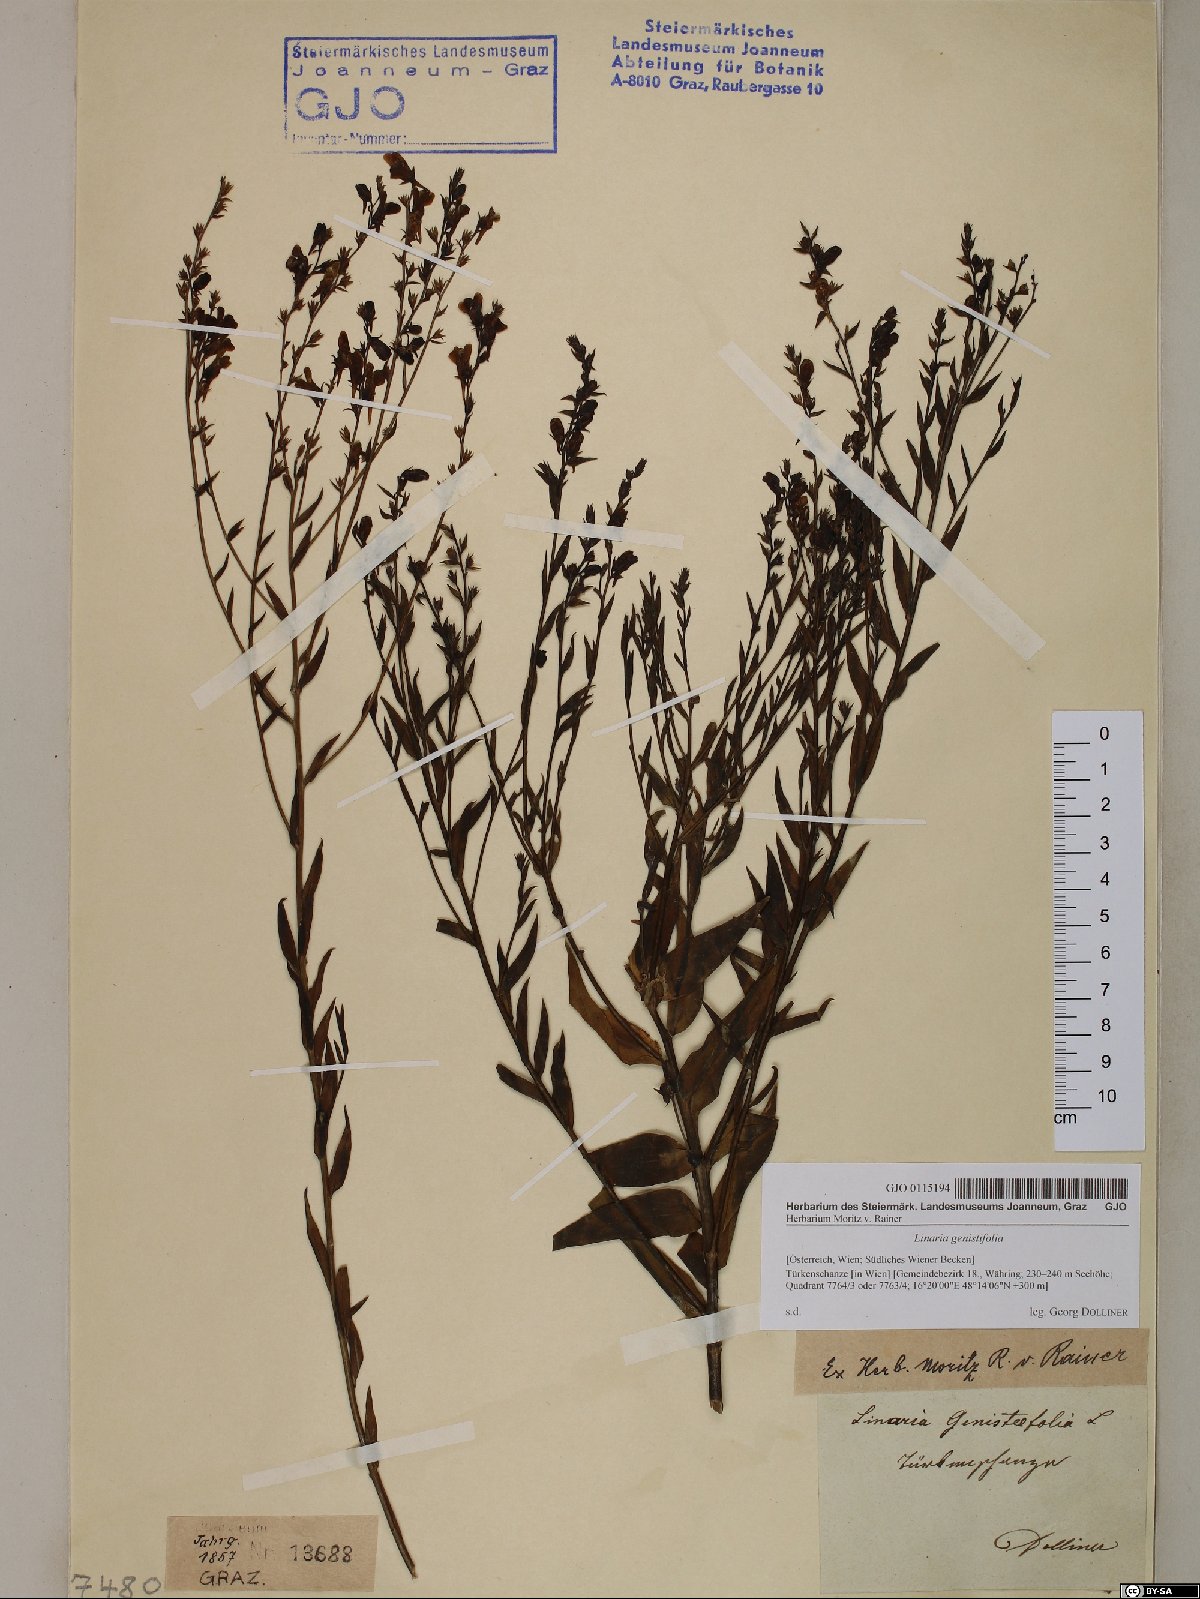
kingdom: Plantae
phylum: Tracheophyta
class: Magnoliopsida
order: Lamiales
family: Plantaginaceae
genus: Linaria
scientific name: Linaria genistifolia
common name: Broomleaf toadflax
